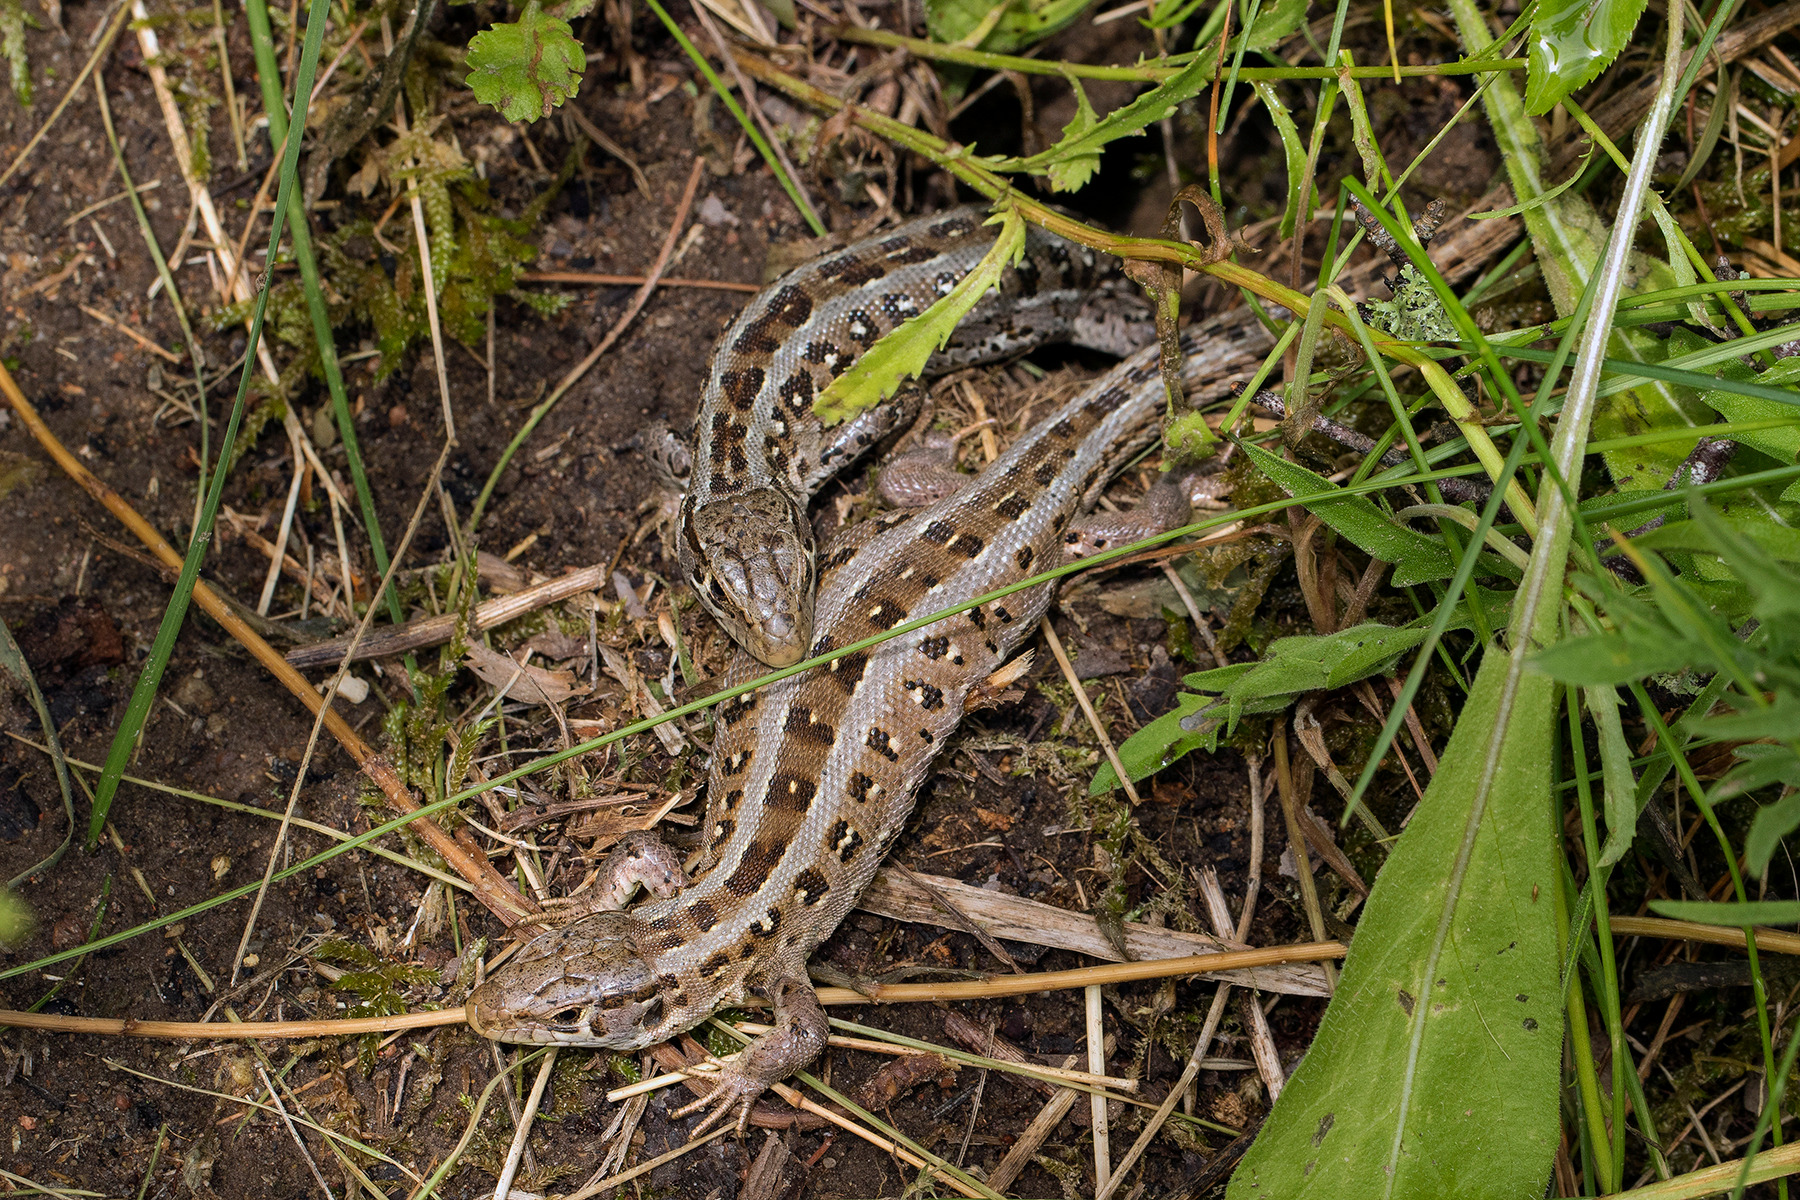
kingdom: Animalia
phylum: Chordata
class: Squamata
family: Lacertidae
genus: Lacerta
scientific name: Lacerta agilis
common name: Markfirben
